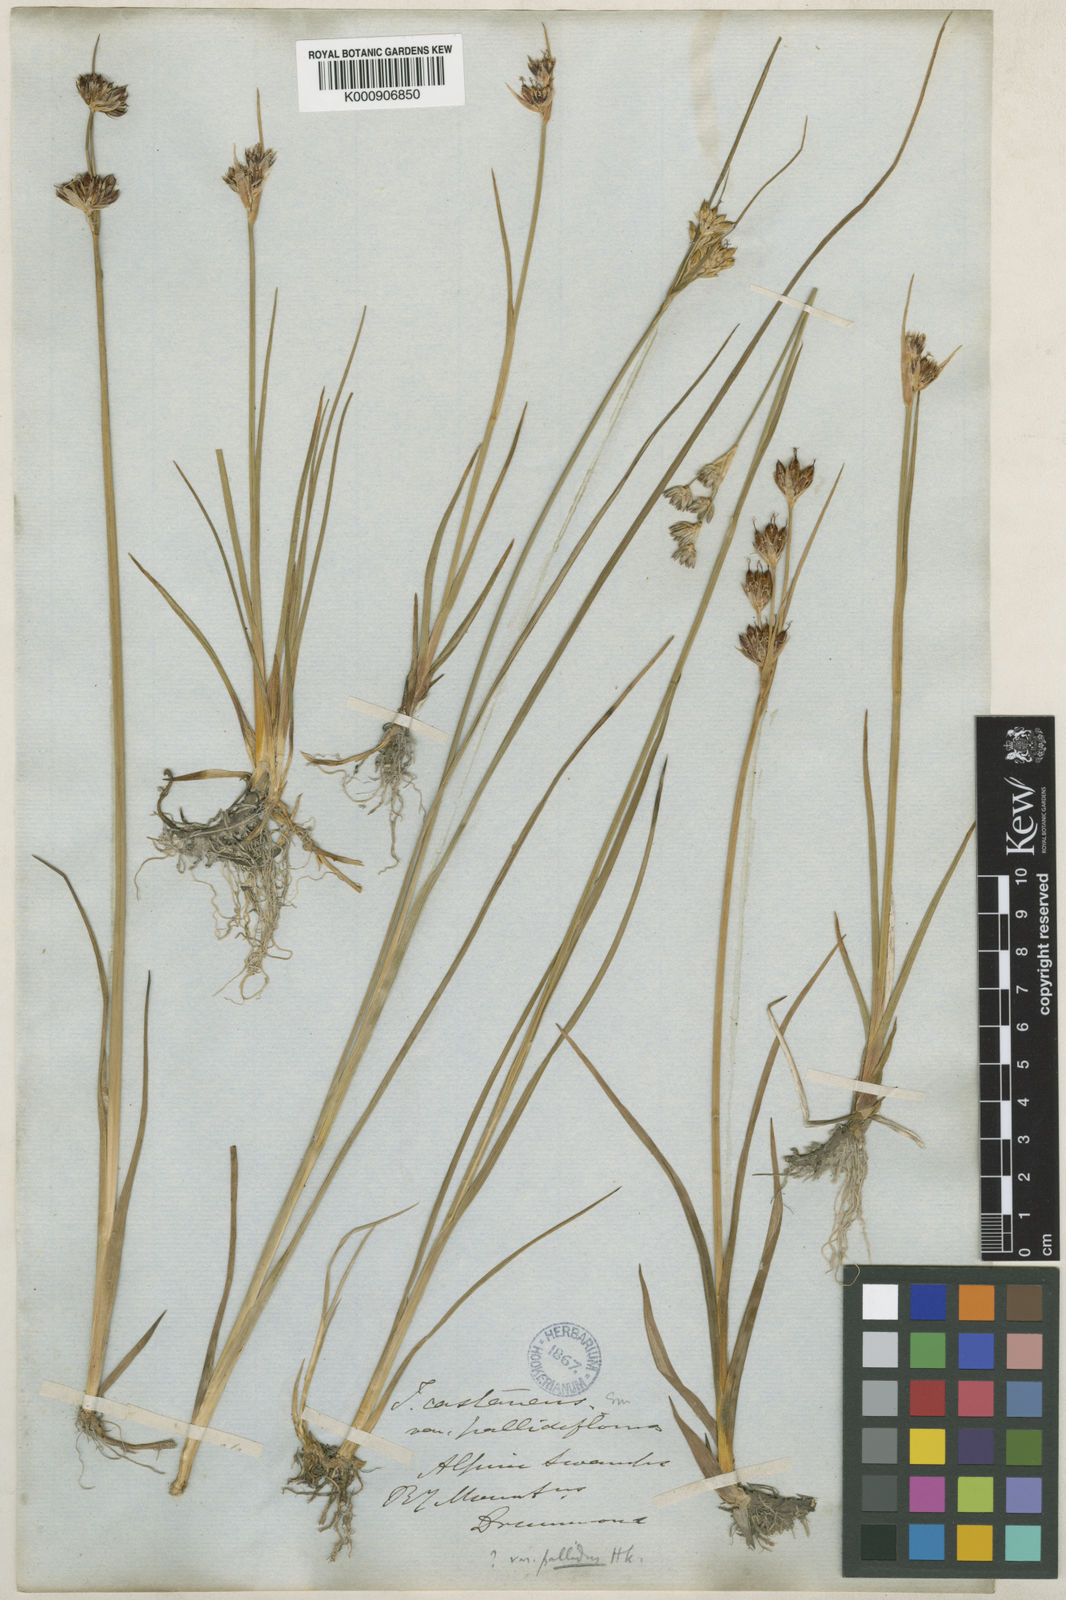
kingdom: Plantae
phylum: Tracheophyta
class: Liliopsida
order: Poales
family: Juncaceae
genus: Juncus
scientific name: Juncus castaneus
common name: Chestnut rush
